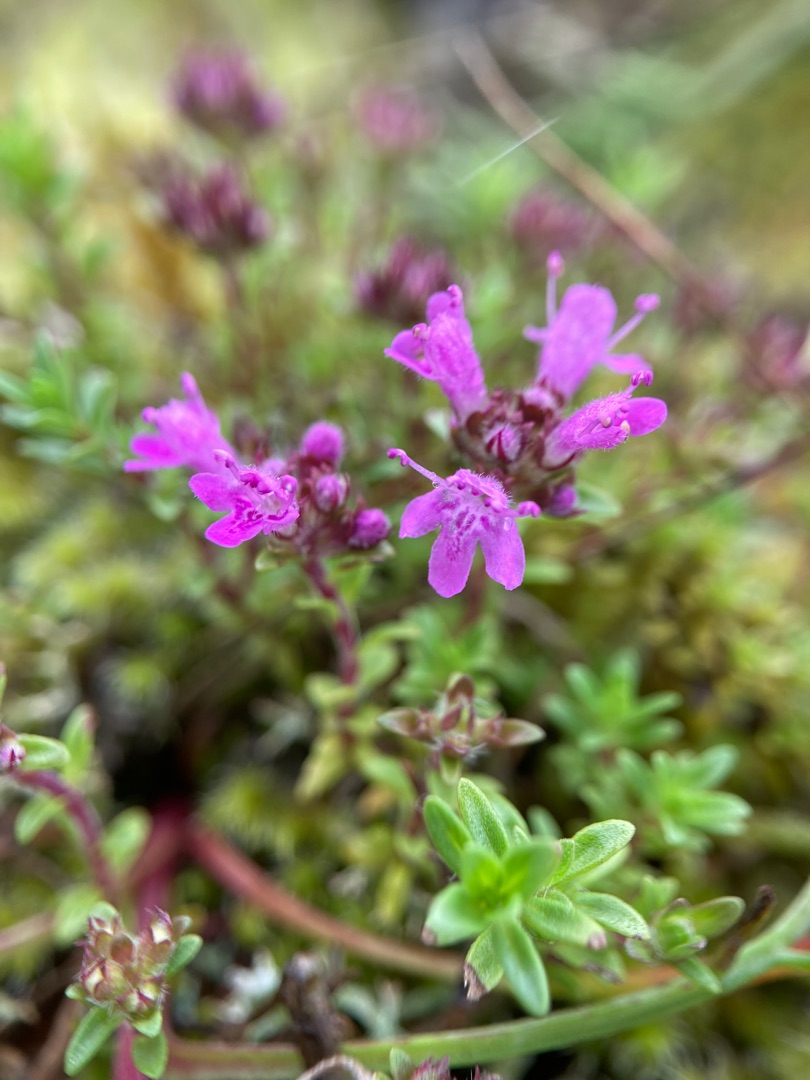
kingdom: Plantae
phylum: Tracheophyta
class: Magnoliopsida
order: Lamiales
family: Lamiaceae
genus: Thymus
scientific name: Thymus serpyllum
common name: Smalbladet timian
